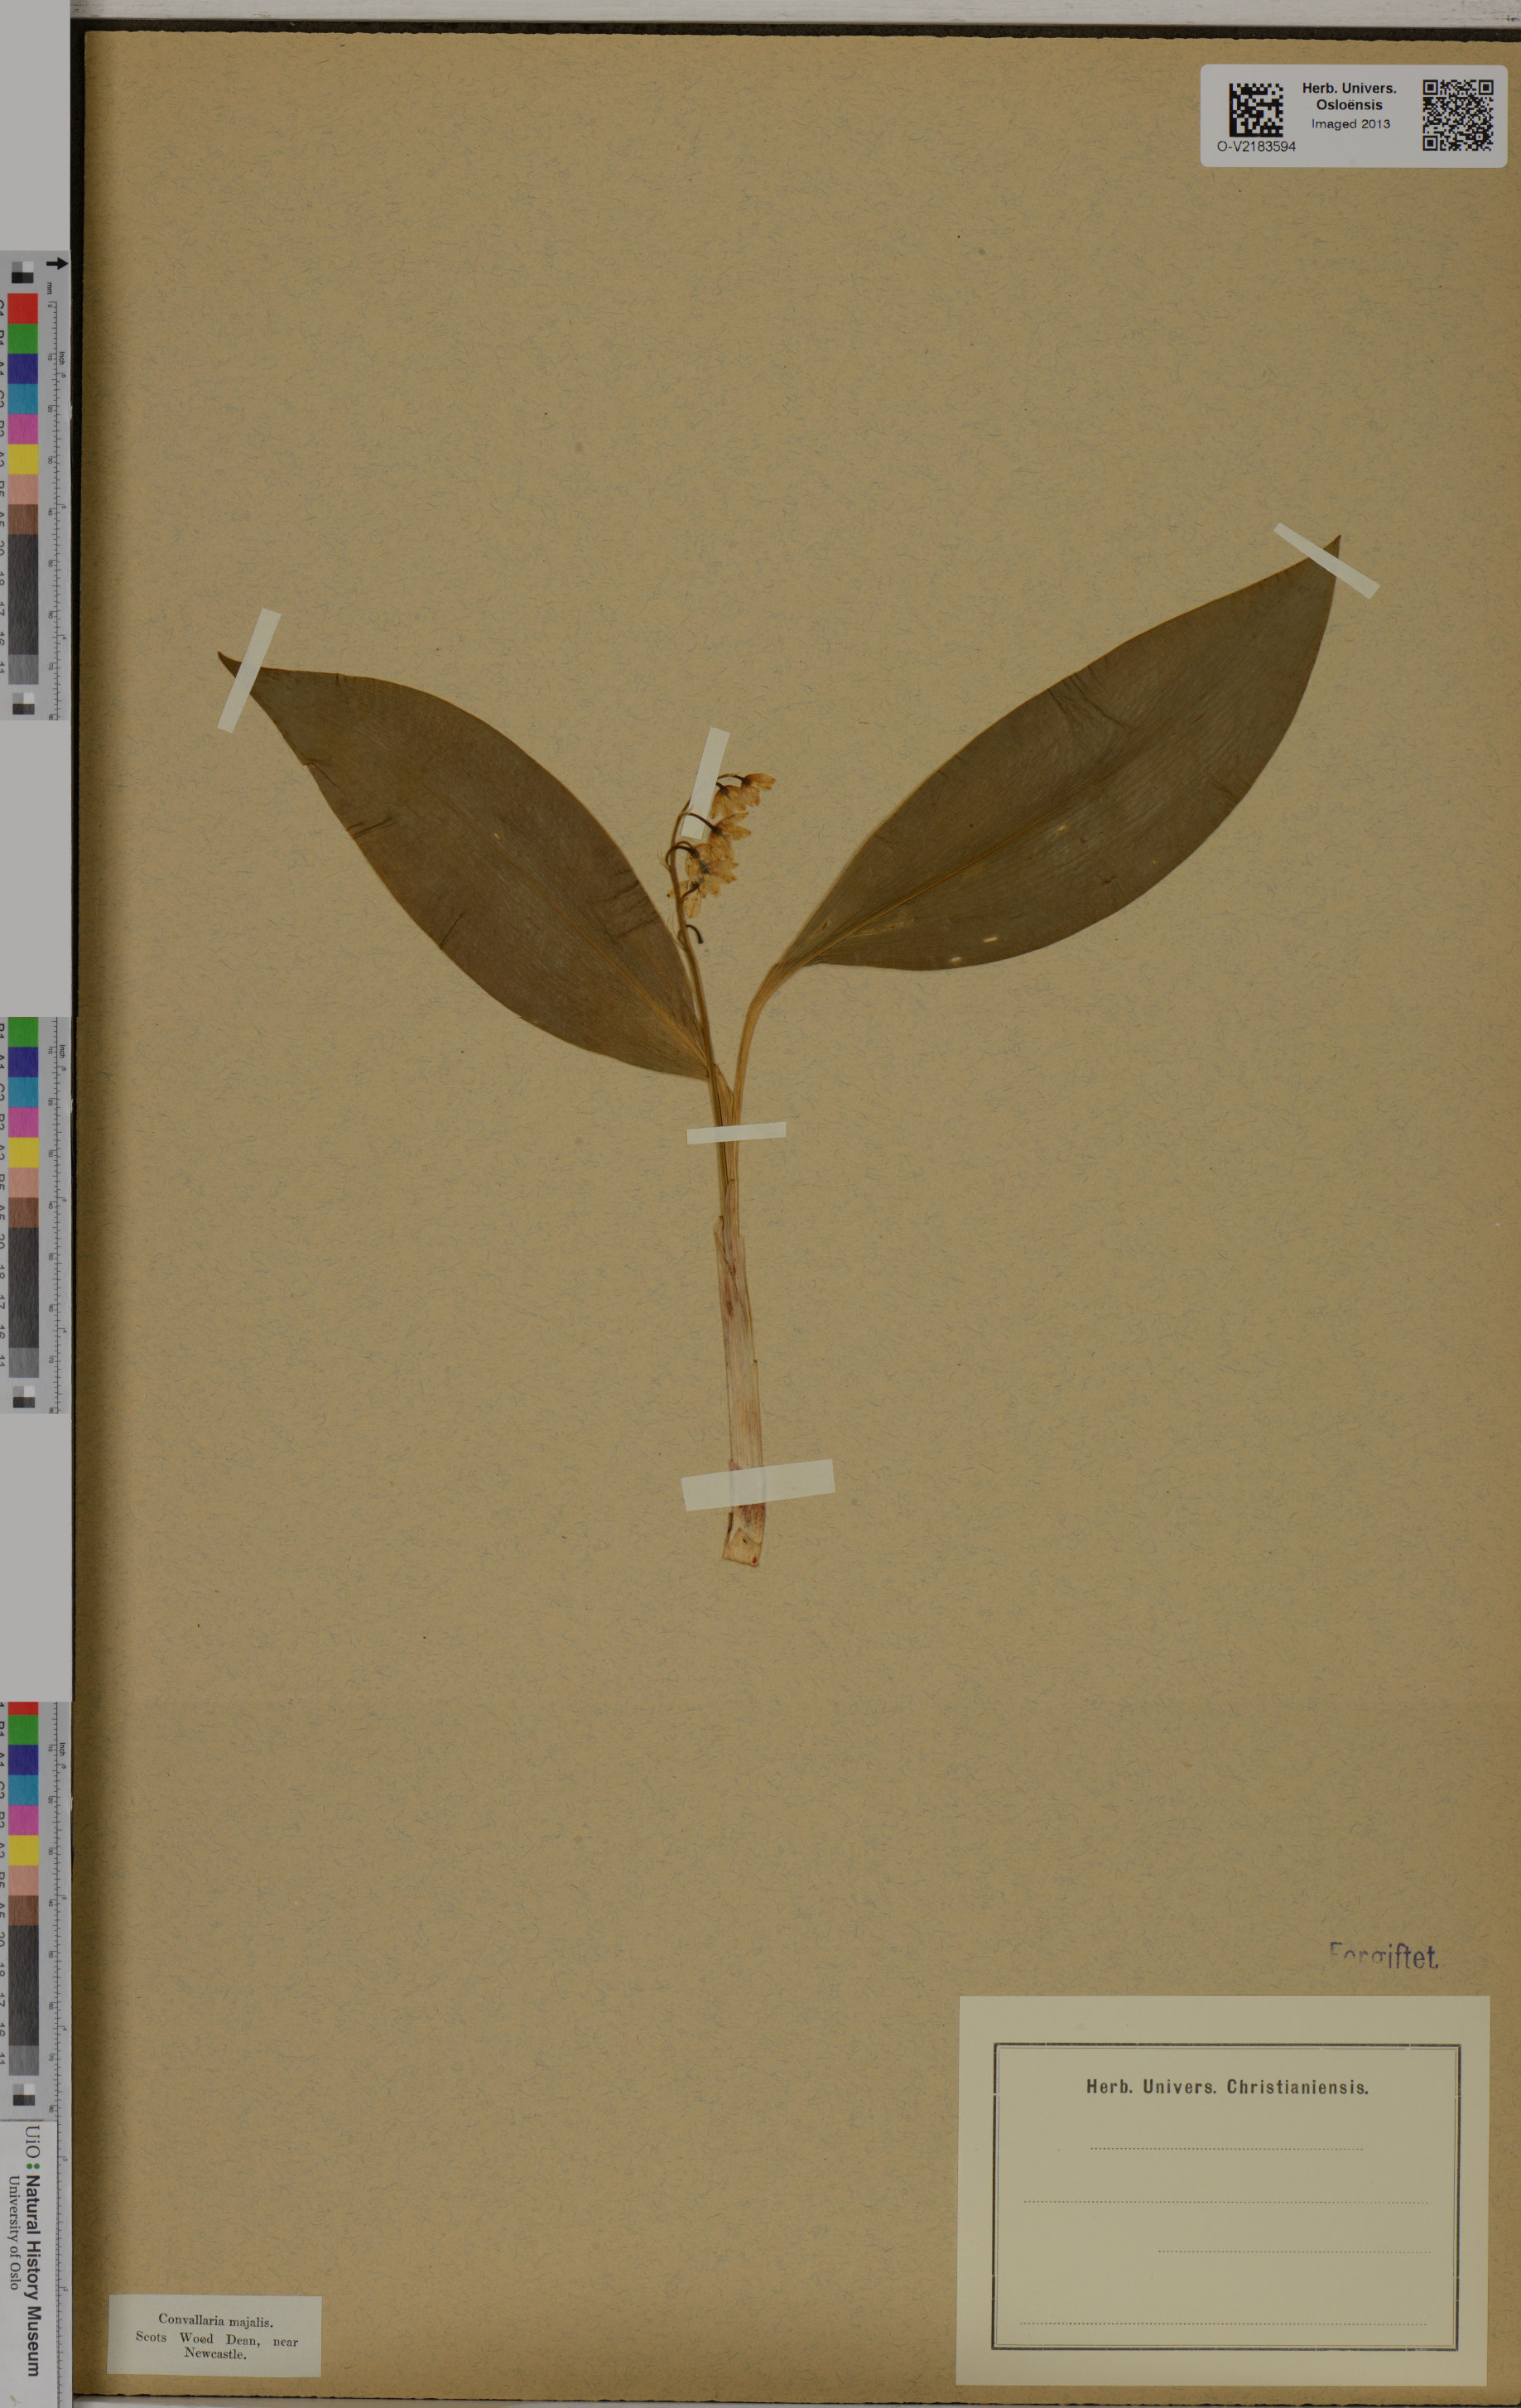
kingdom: Plantae
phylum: Tracheophyta
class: Liliopsida
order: Asparagales
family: Asparagaceae
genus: Convallaria
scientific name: Convallaria majalis
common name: Lily-of-the-valley
